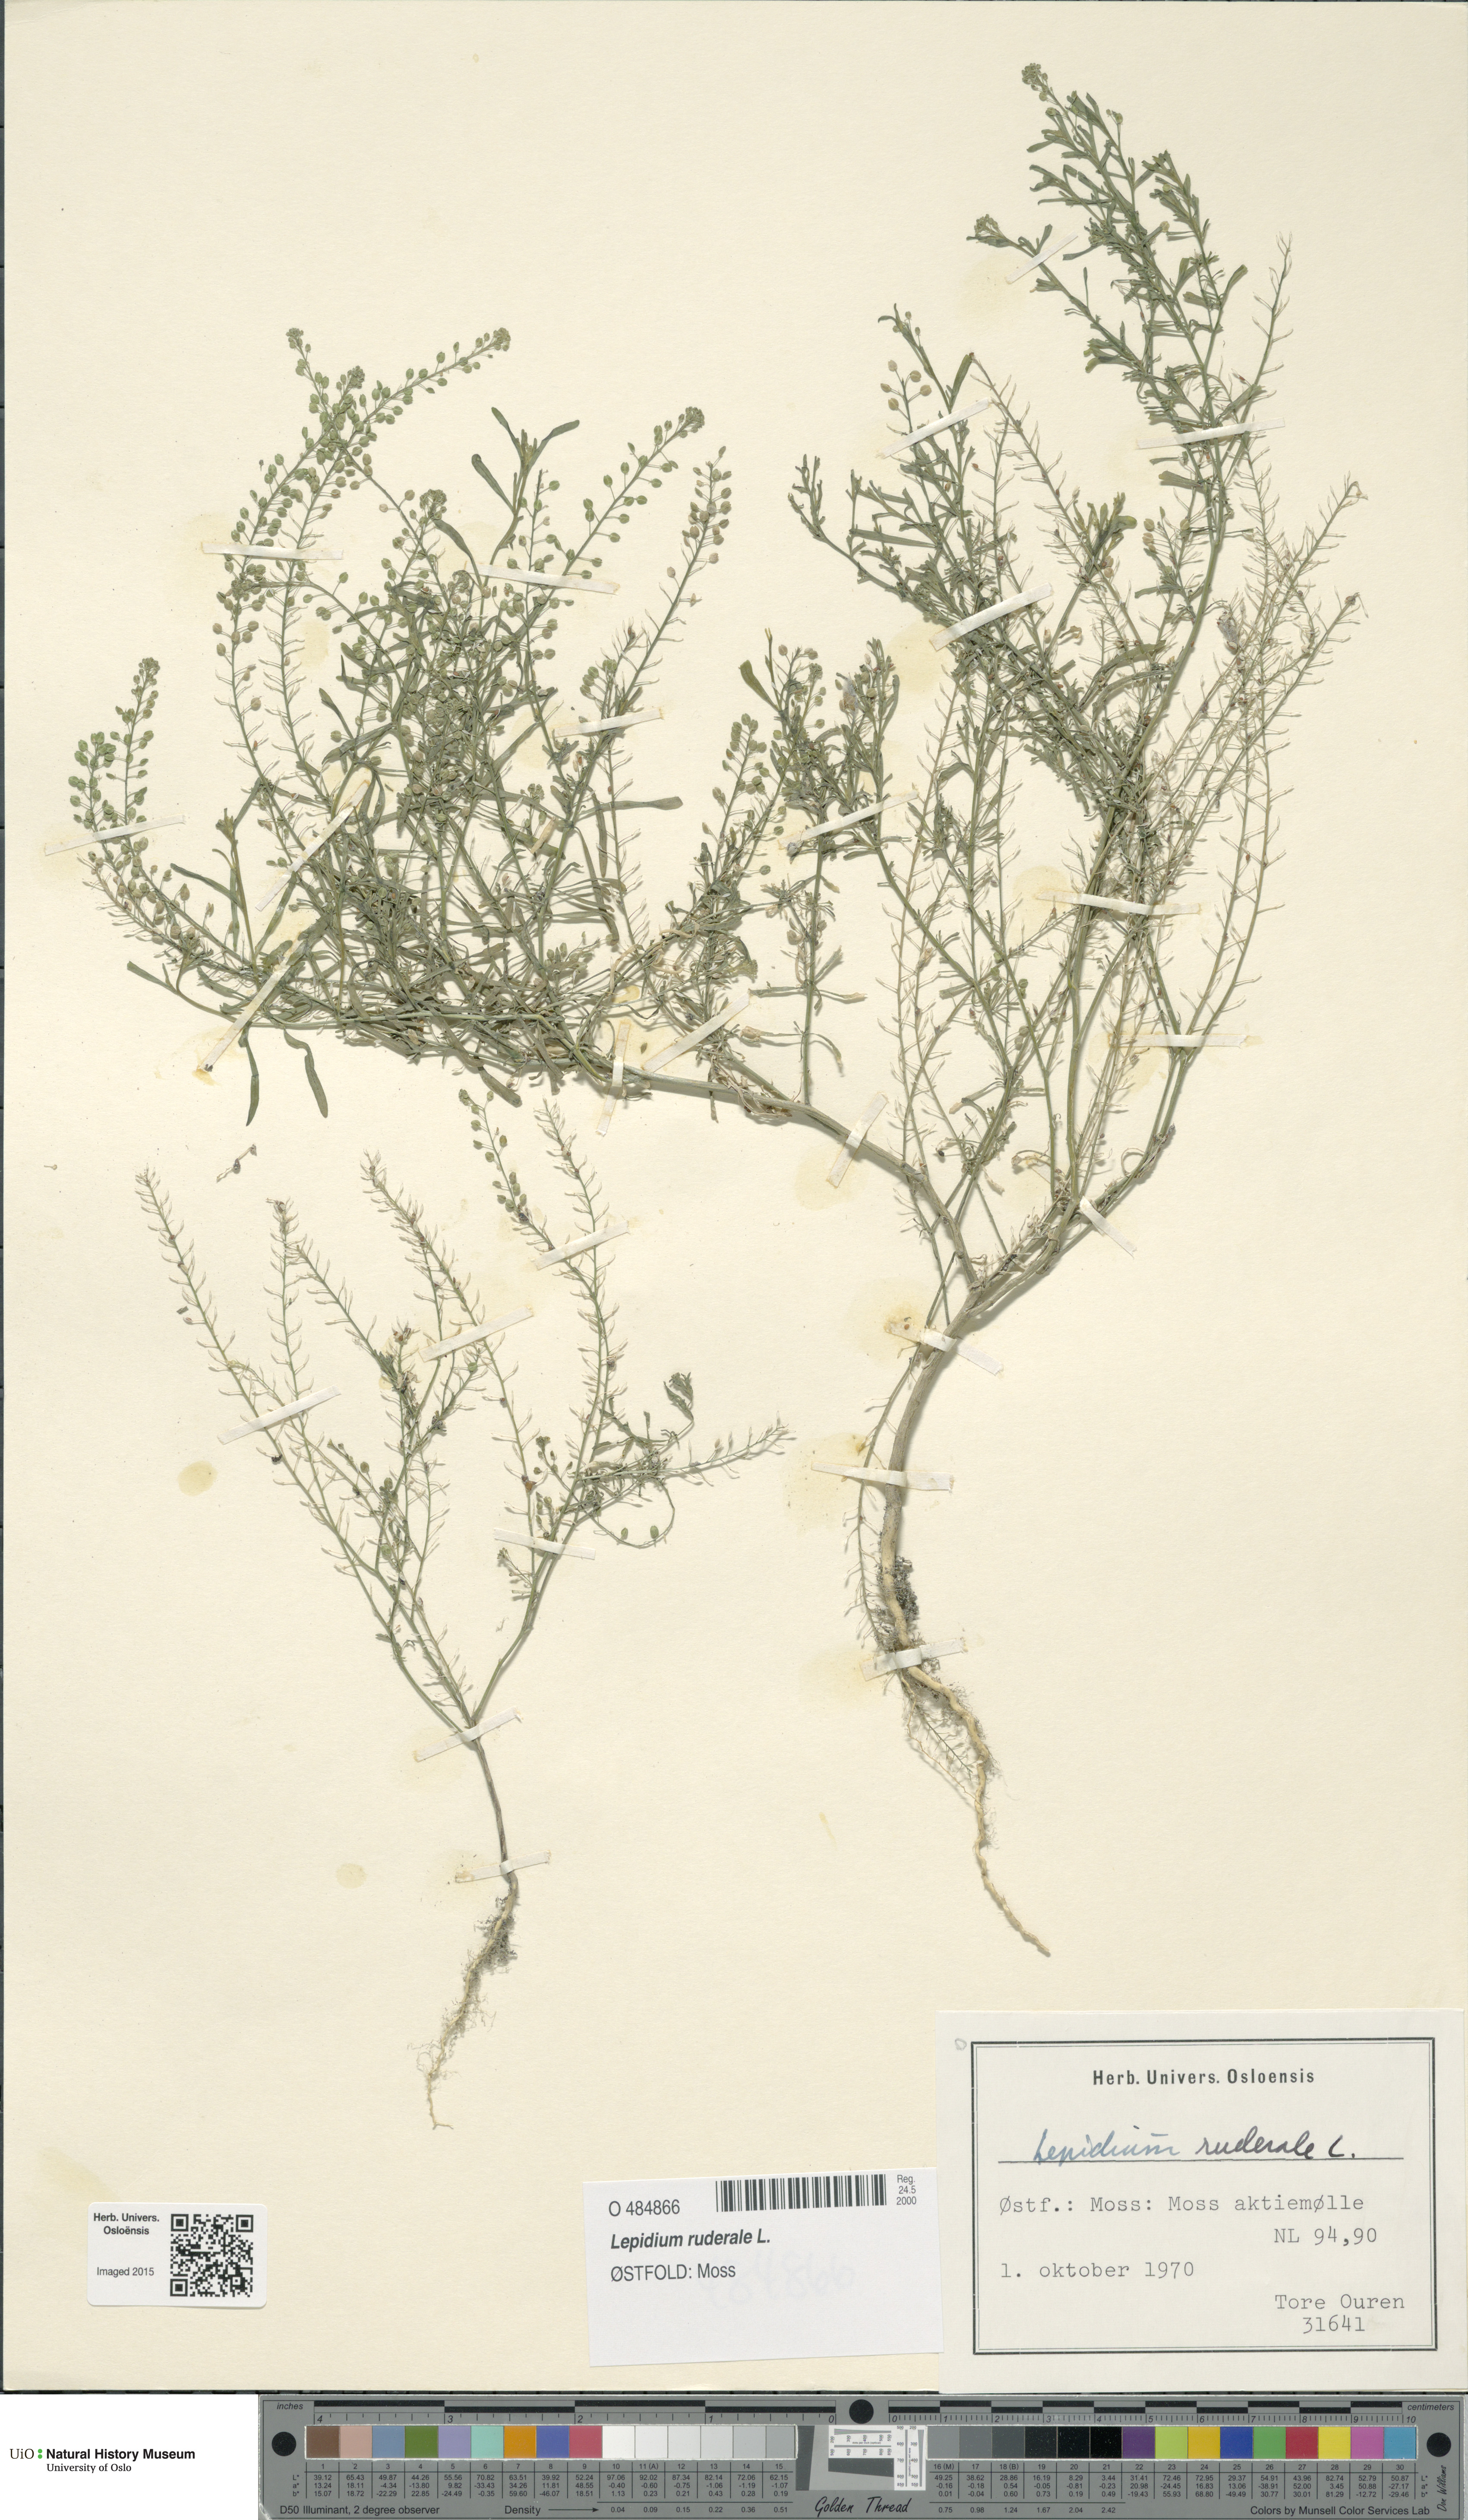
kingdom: Plantae
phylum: Tracheophyta
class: Magnoliopsida
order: Brassicales
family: Brassicaceae
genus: Lepidium
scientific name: Lepidium ruderale
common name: Narrow-leaved pepperwort
